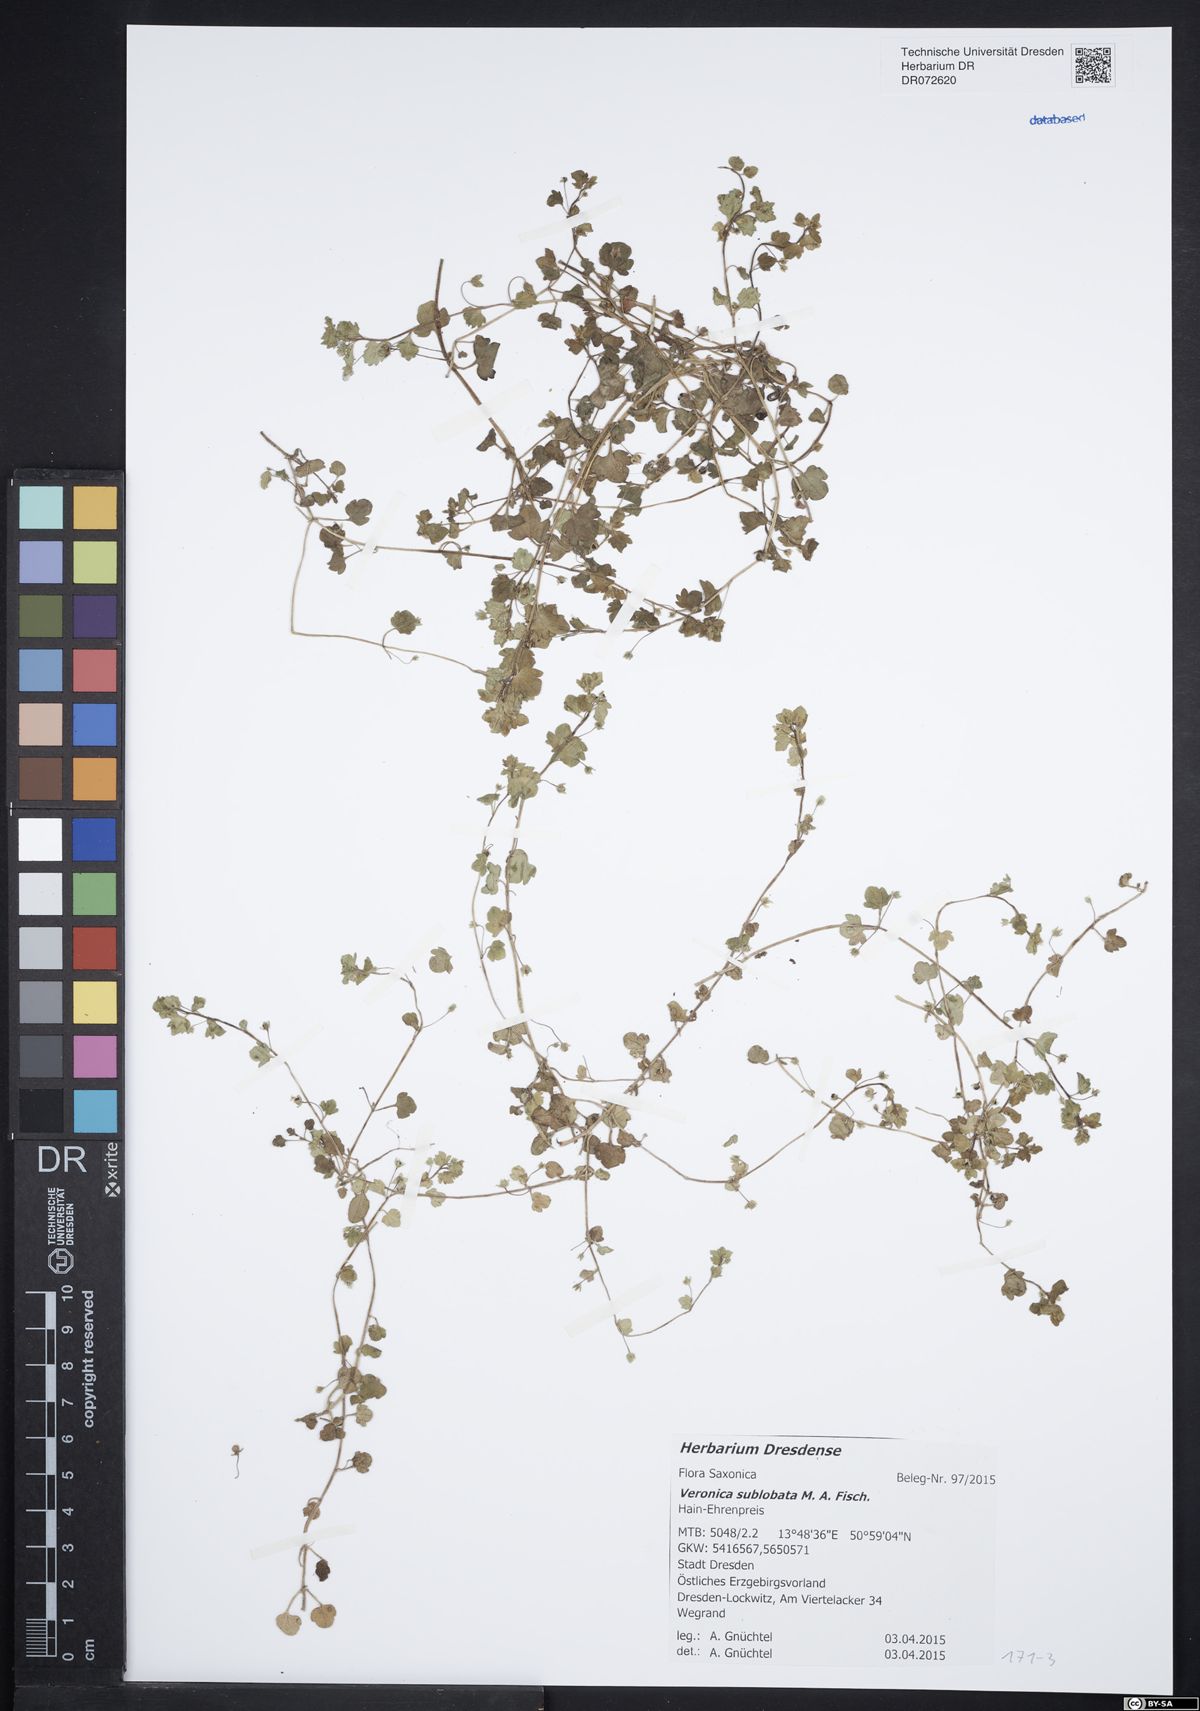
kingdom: Plantae
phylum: Tracheophyta
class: Magnoliopsida
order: Lamiales
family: Plantaginaceae
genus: Veronica
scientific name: Veronica sublobata
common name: False ivy-leaved speedwell
